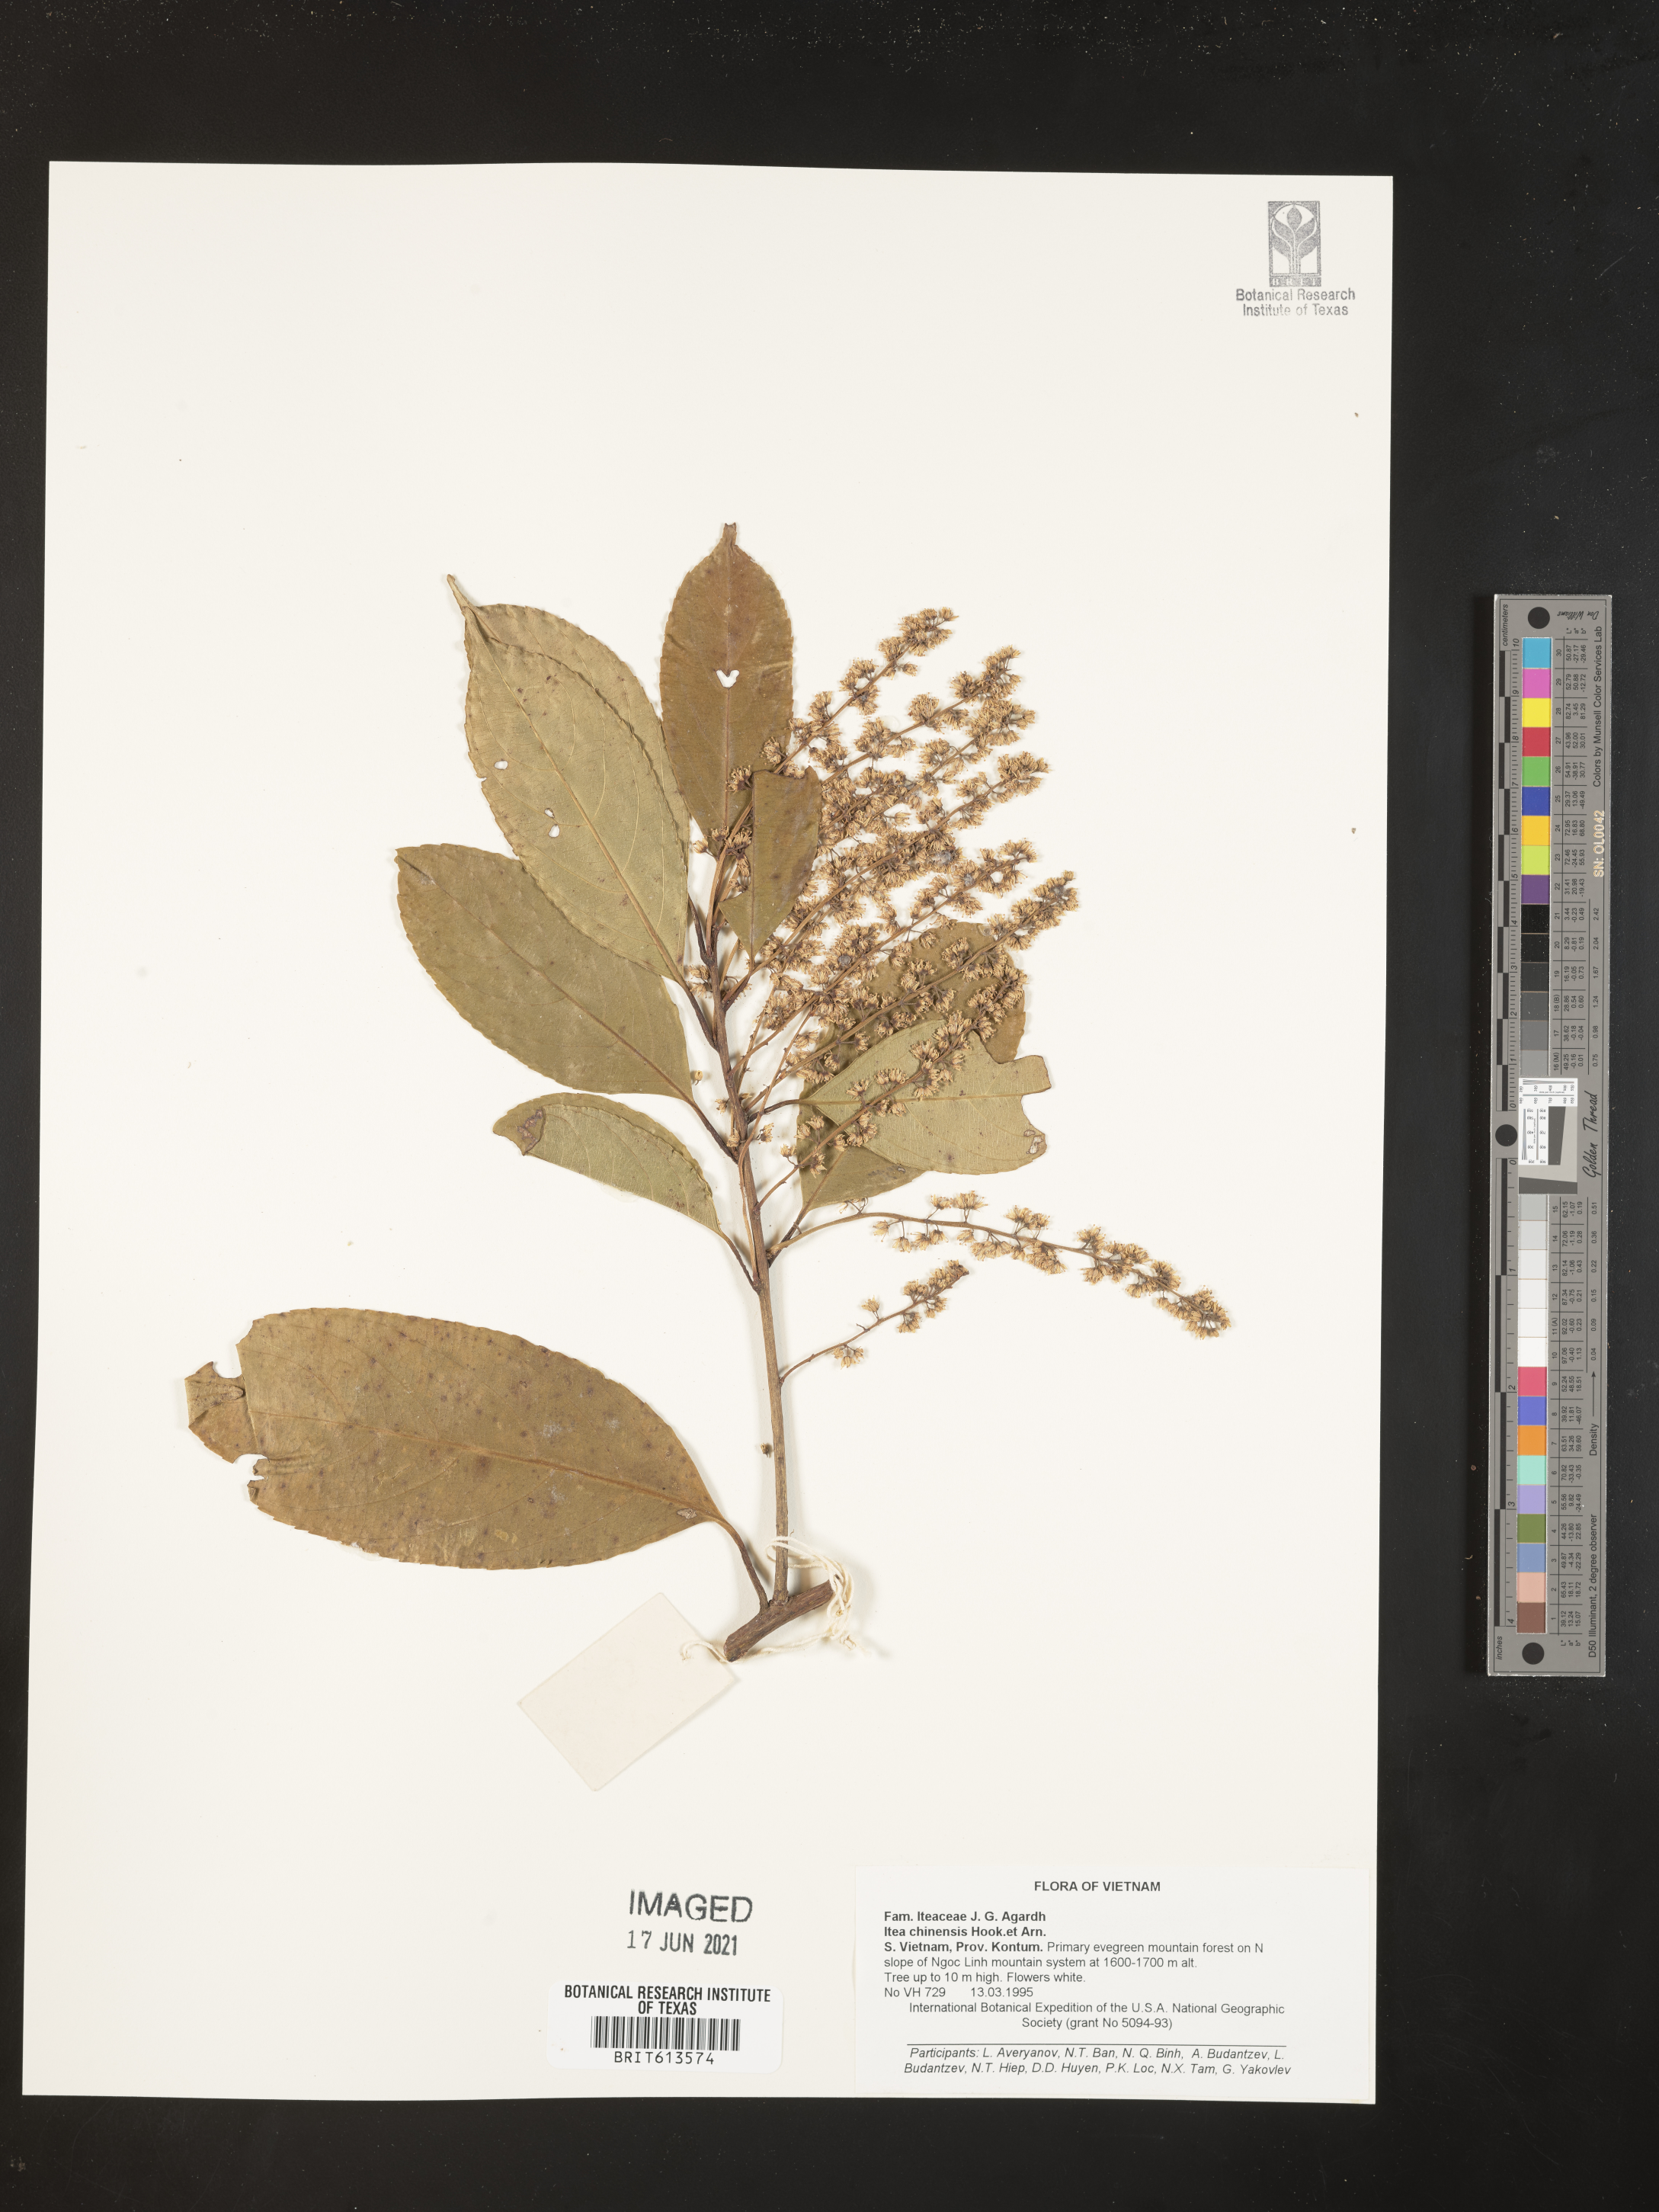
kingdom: Plantae
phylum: Tracheophyta
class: Magnoliopsida
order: Saxifragales
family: Iteaceae
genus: Itea
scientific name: Itea chinensis
